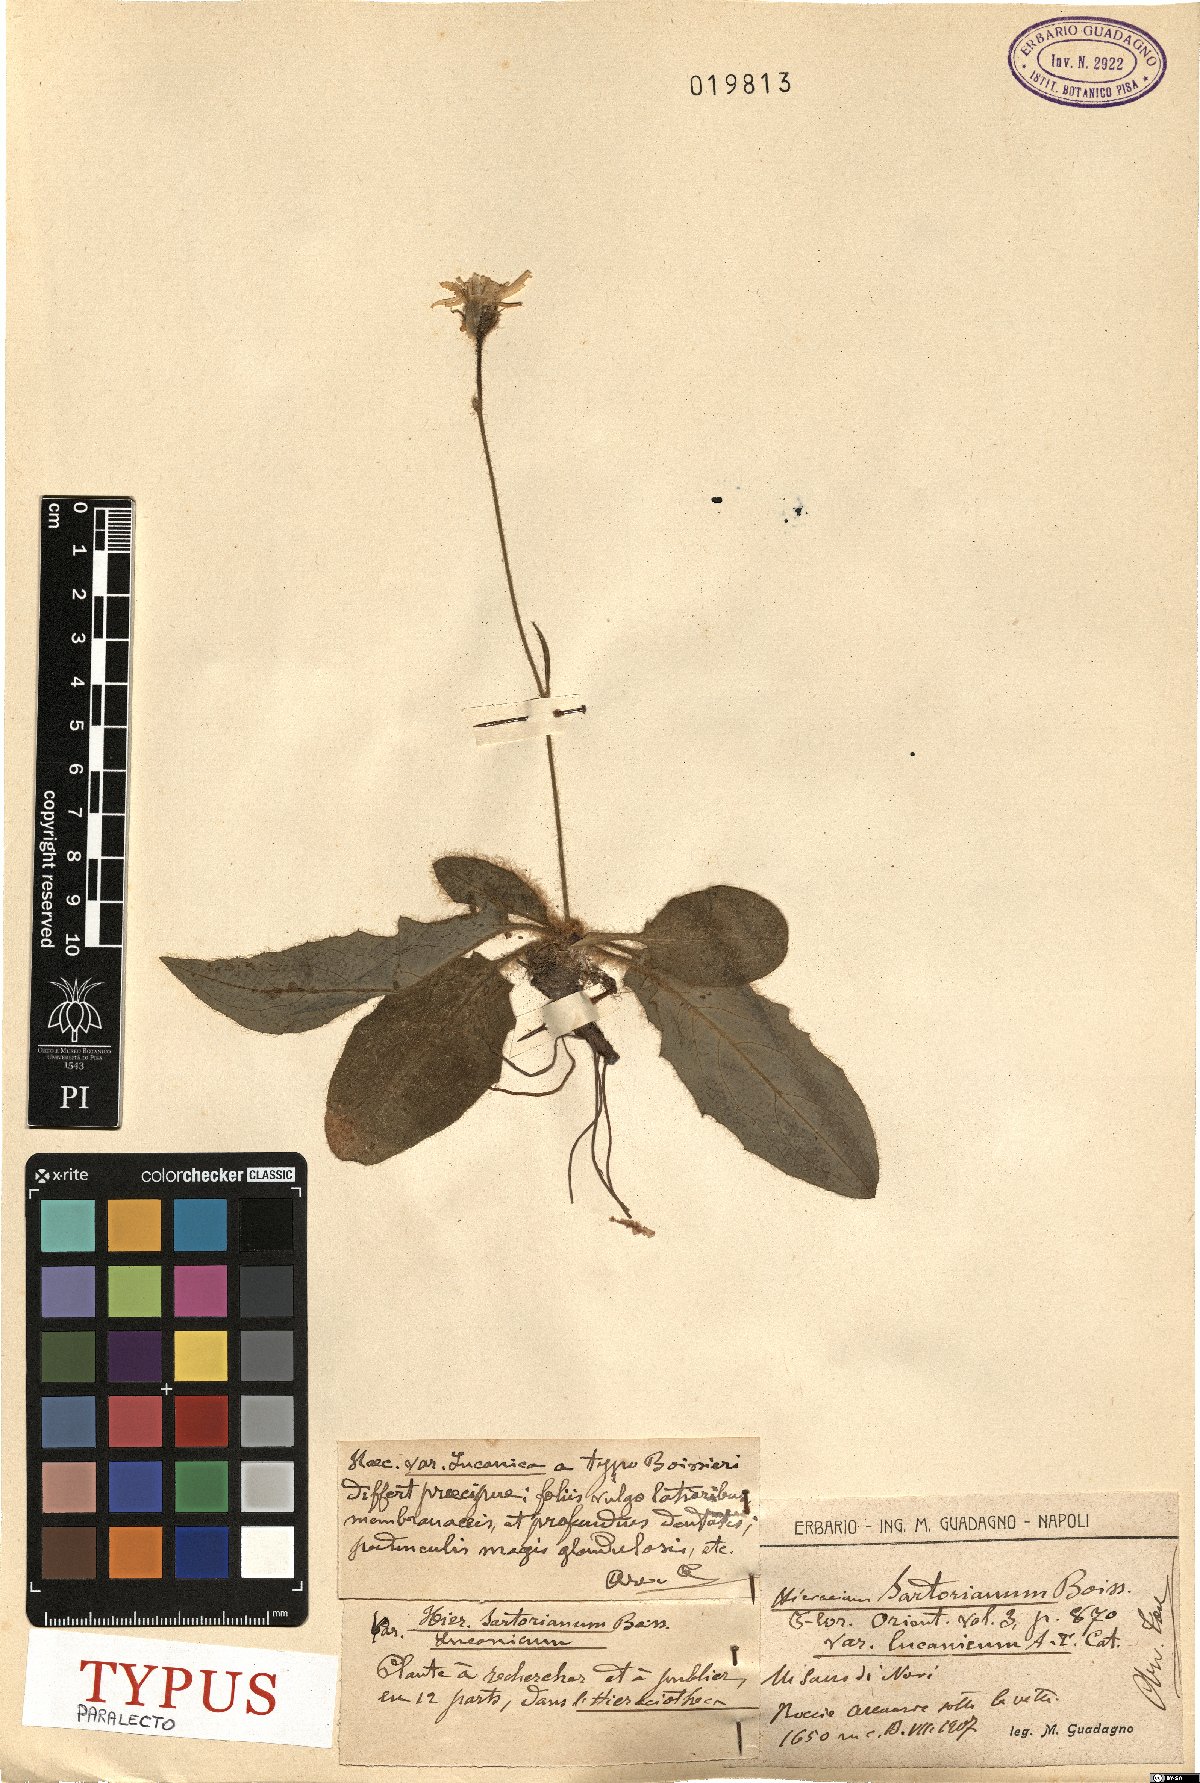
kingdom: Plantae
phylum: Tracheophyta
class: Magnoliopsida
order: Asterales
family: Asteraceae
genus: Hieracium
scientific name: Hieracium hypochoeroides
